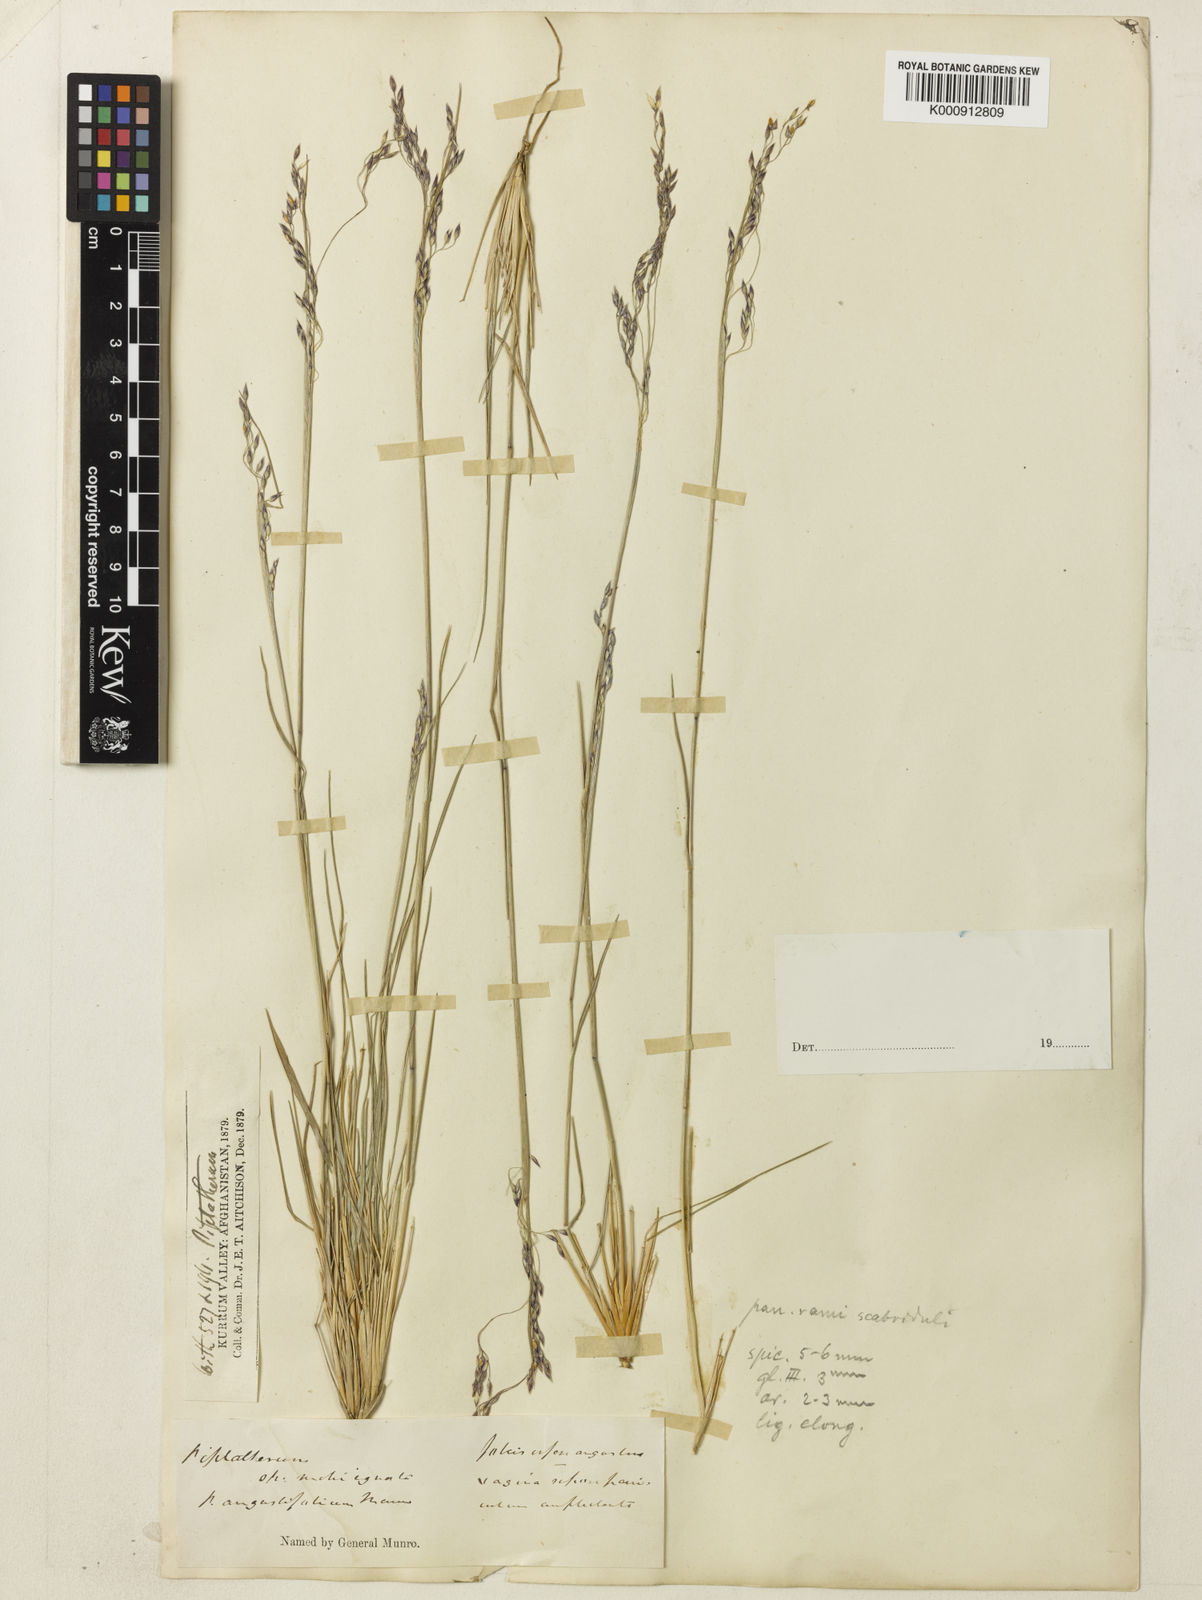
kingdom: Plantae
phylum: Tracheophyta
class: Liliopsida
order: Poales
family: Poaceae
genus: Piptatherum
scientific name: Piptatherum angustifolium
